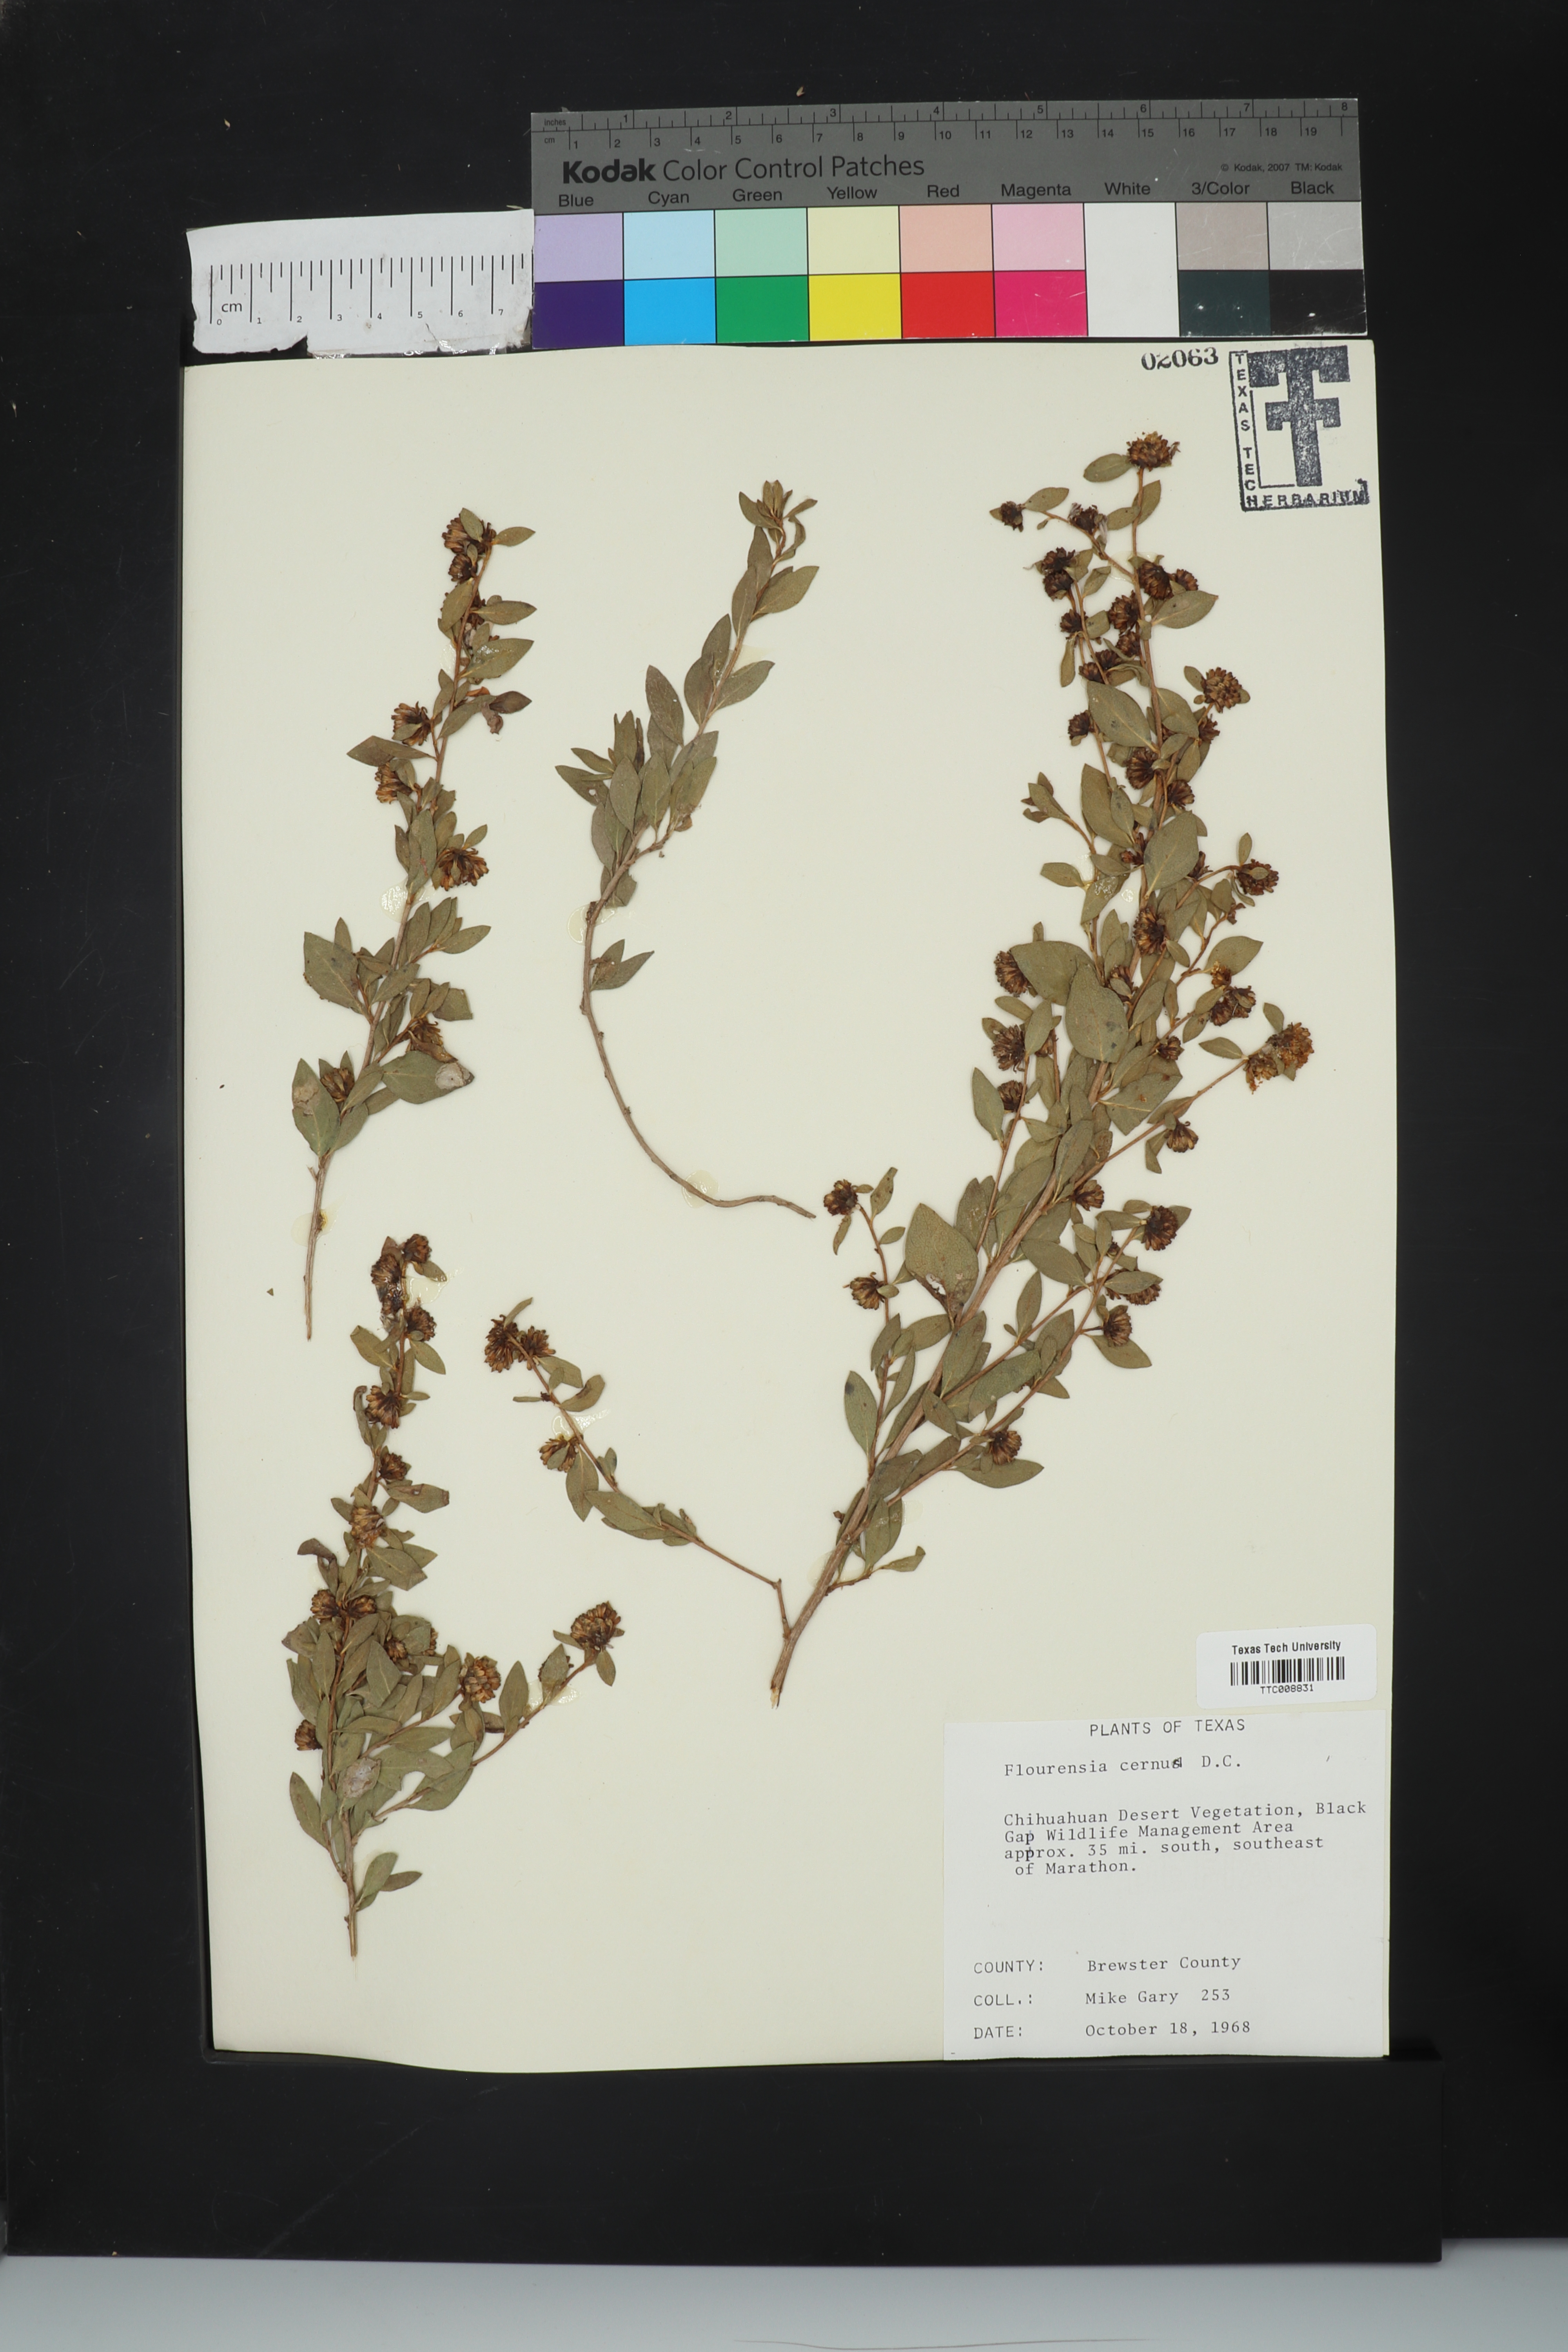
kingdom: Plantae
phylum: Tracheophyta
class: Magnoliopsida
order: Asterales
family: Asteraceae
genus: Flourensia
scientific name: Flourensia cernua
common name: Varnishbush
